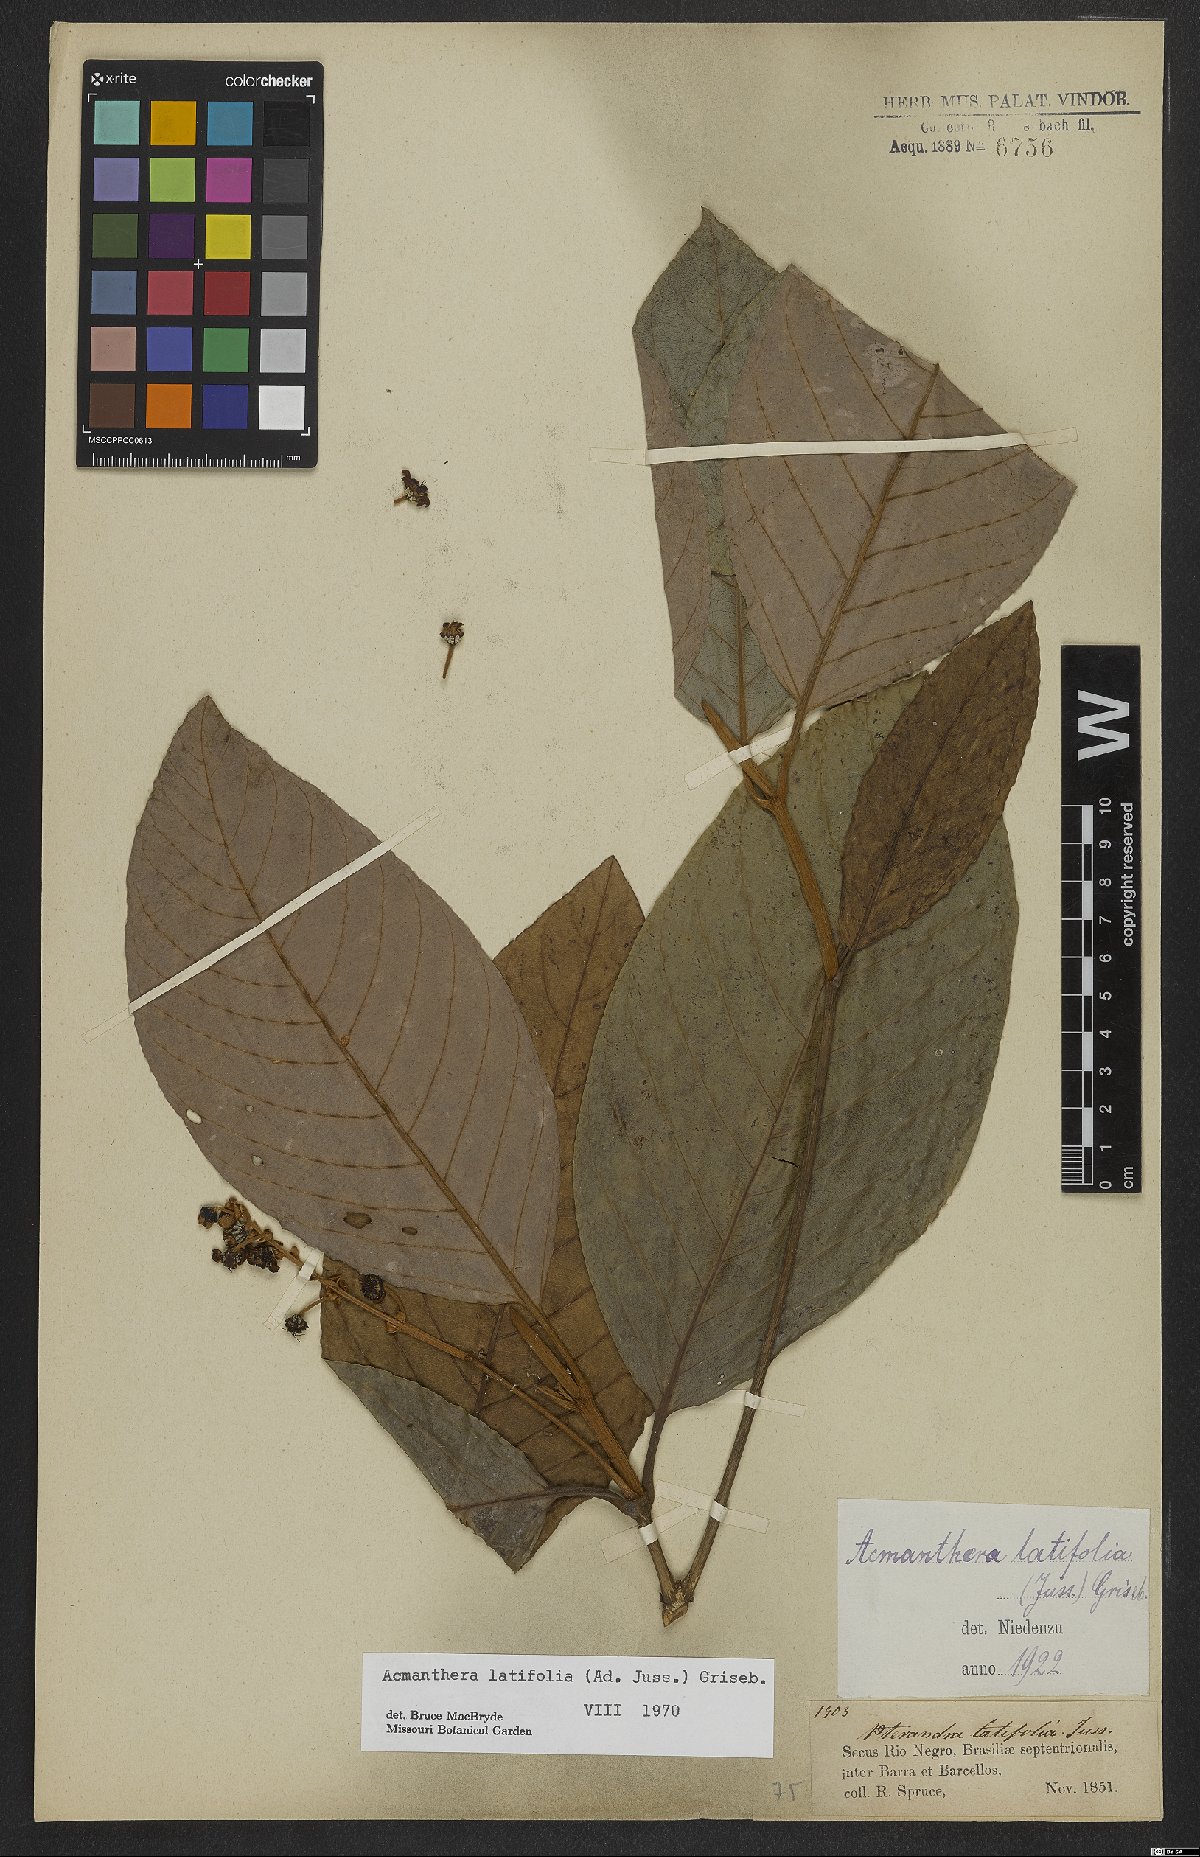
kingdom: Plantae
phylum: Tracheophyta
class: Magnoliopsida
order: Malpighiales
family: Malpighiaceae
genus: Acmanthera
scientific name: Acmanthera latifolia
